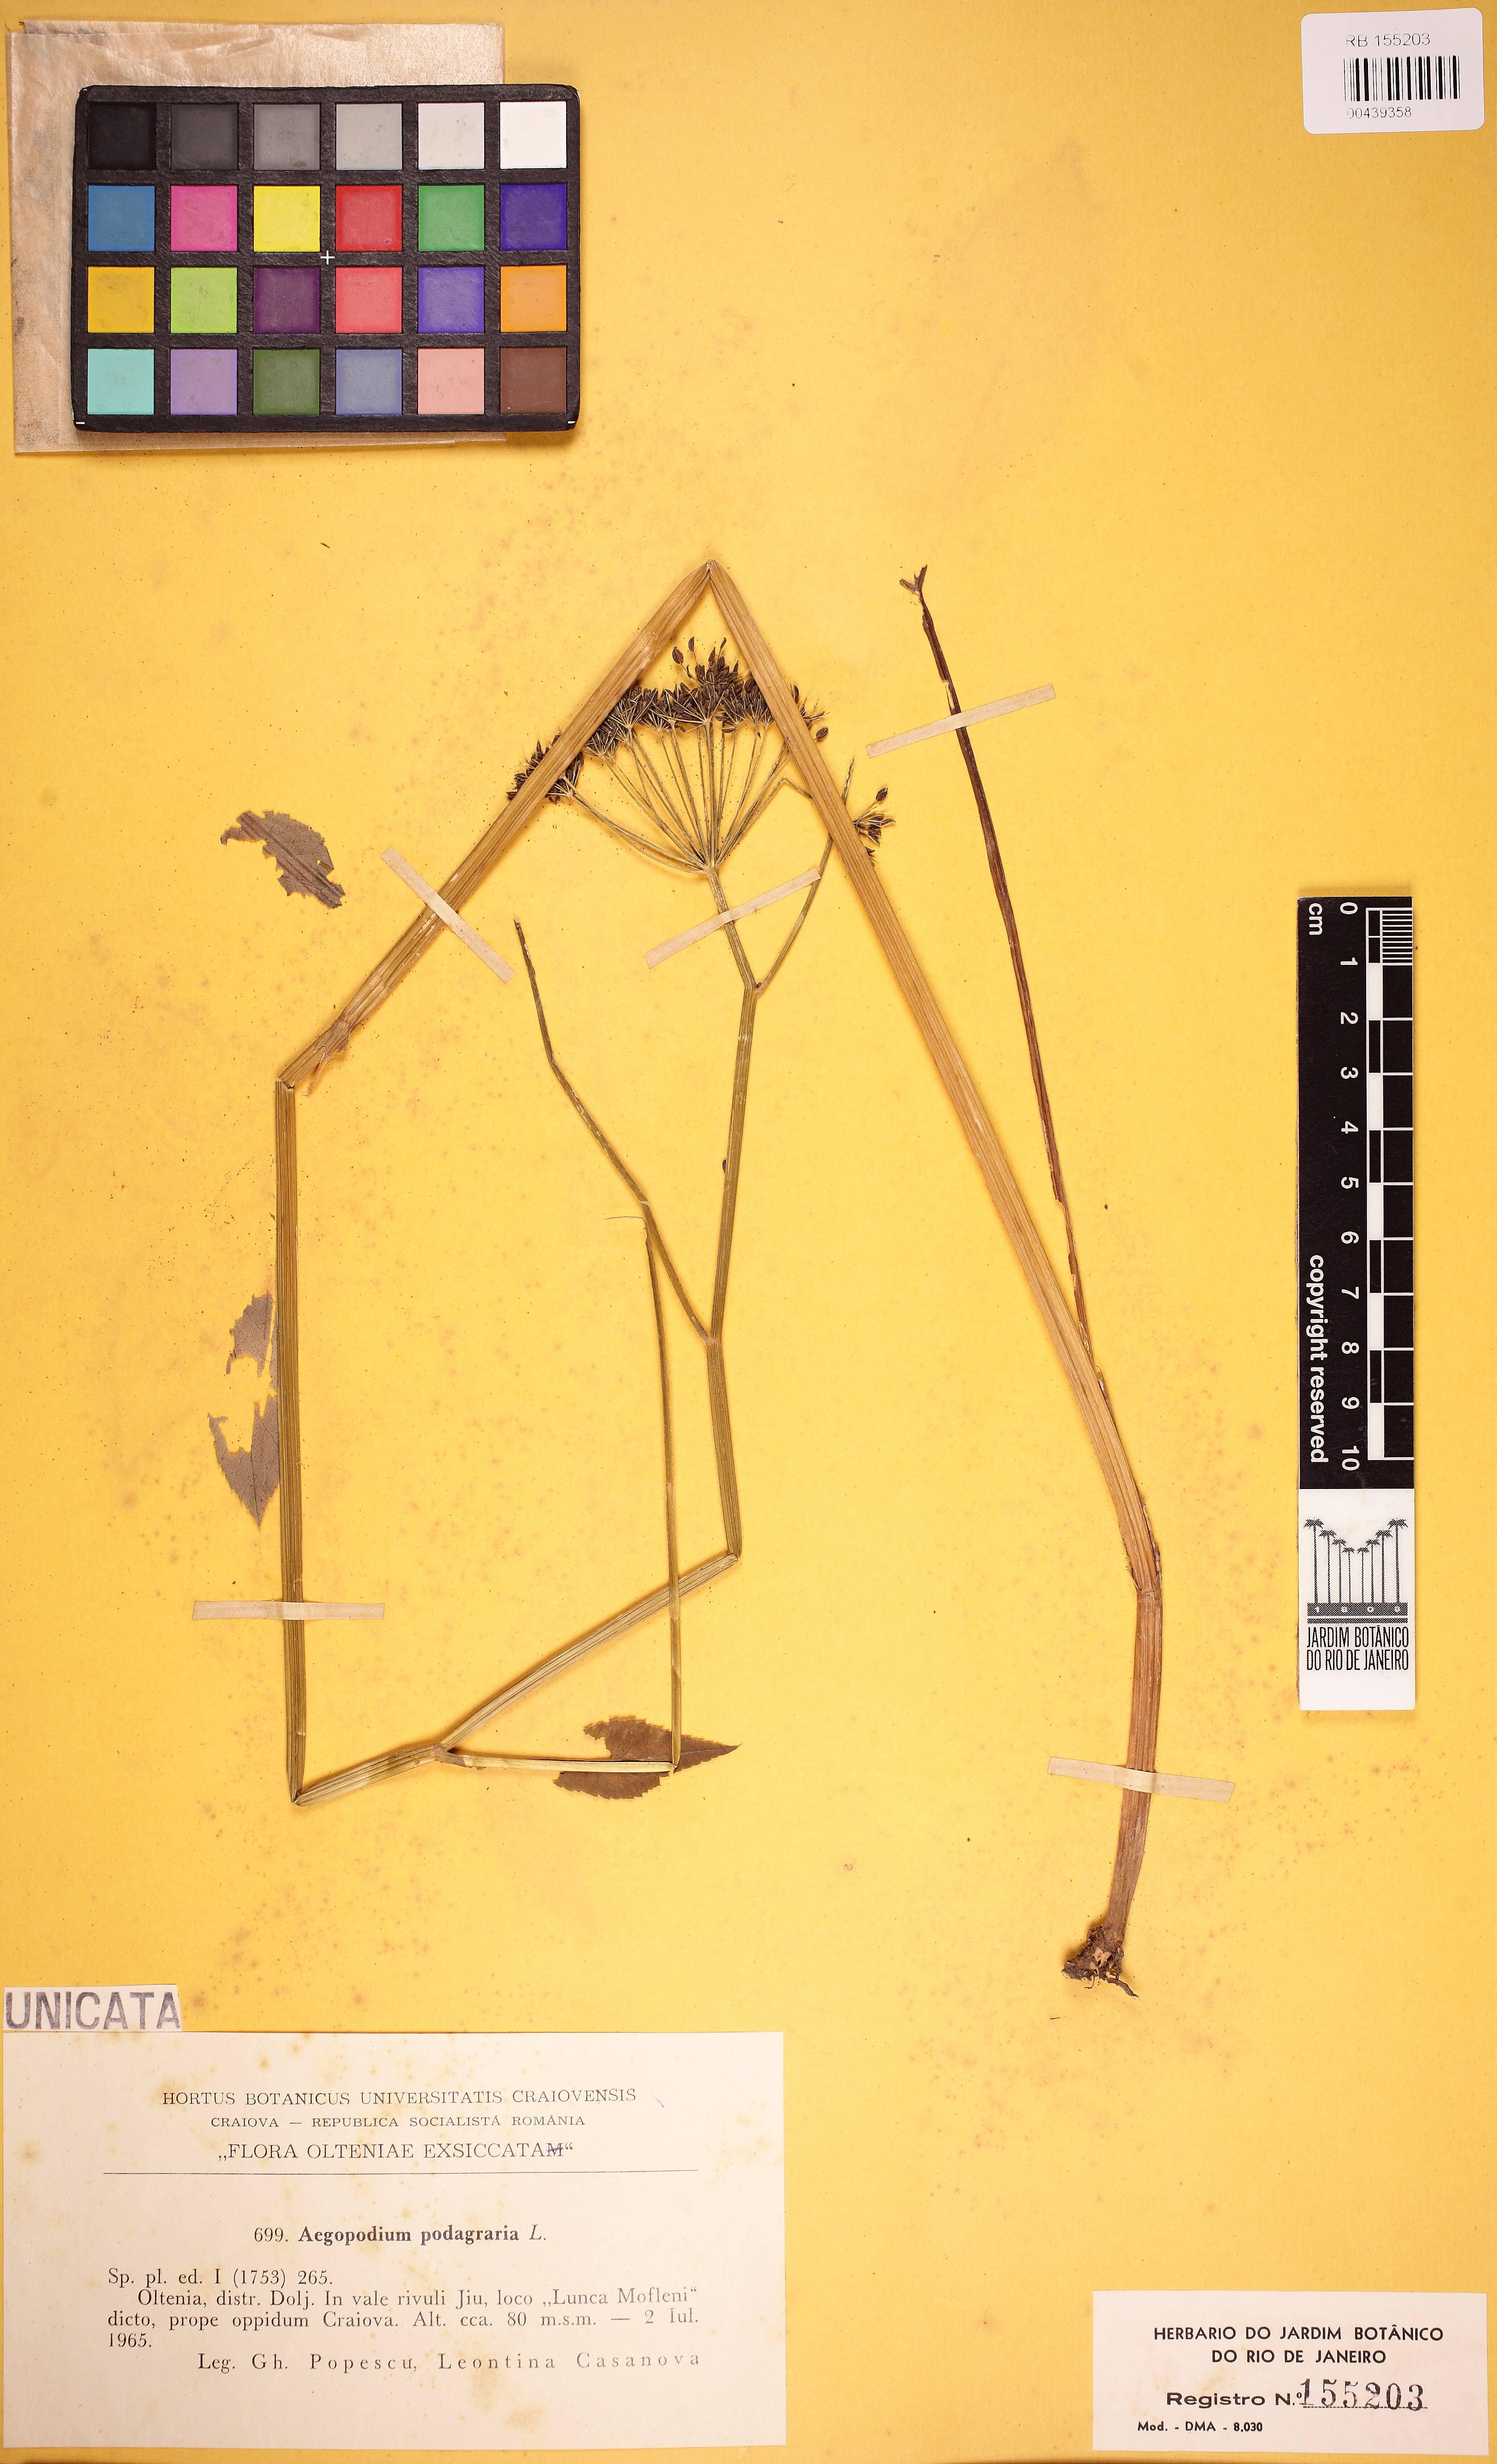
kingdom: Plantae
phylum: Tracheophyta
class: Magnoliopsida
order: Apiales
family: Apiaceae
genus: Actinotus
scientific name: Actinotus
